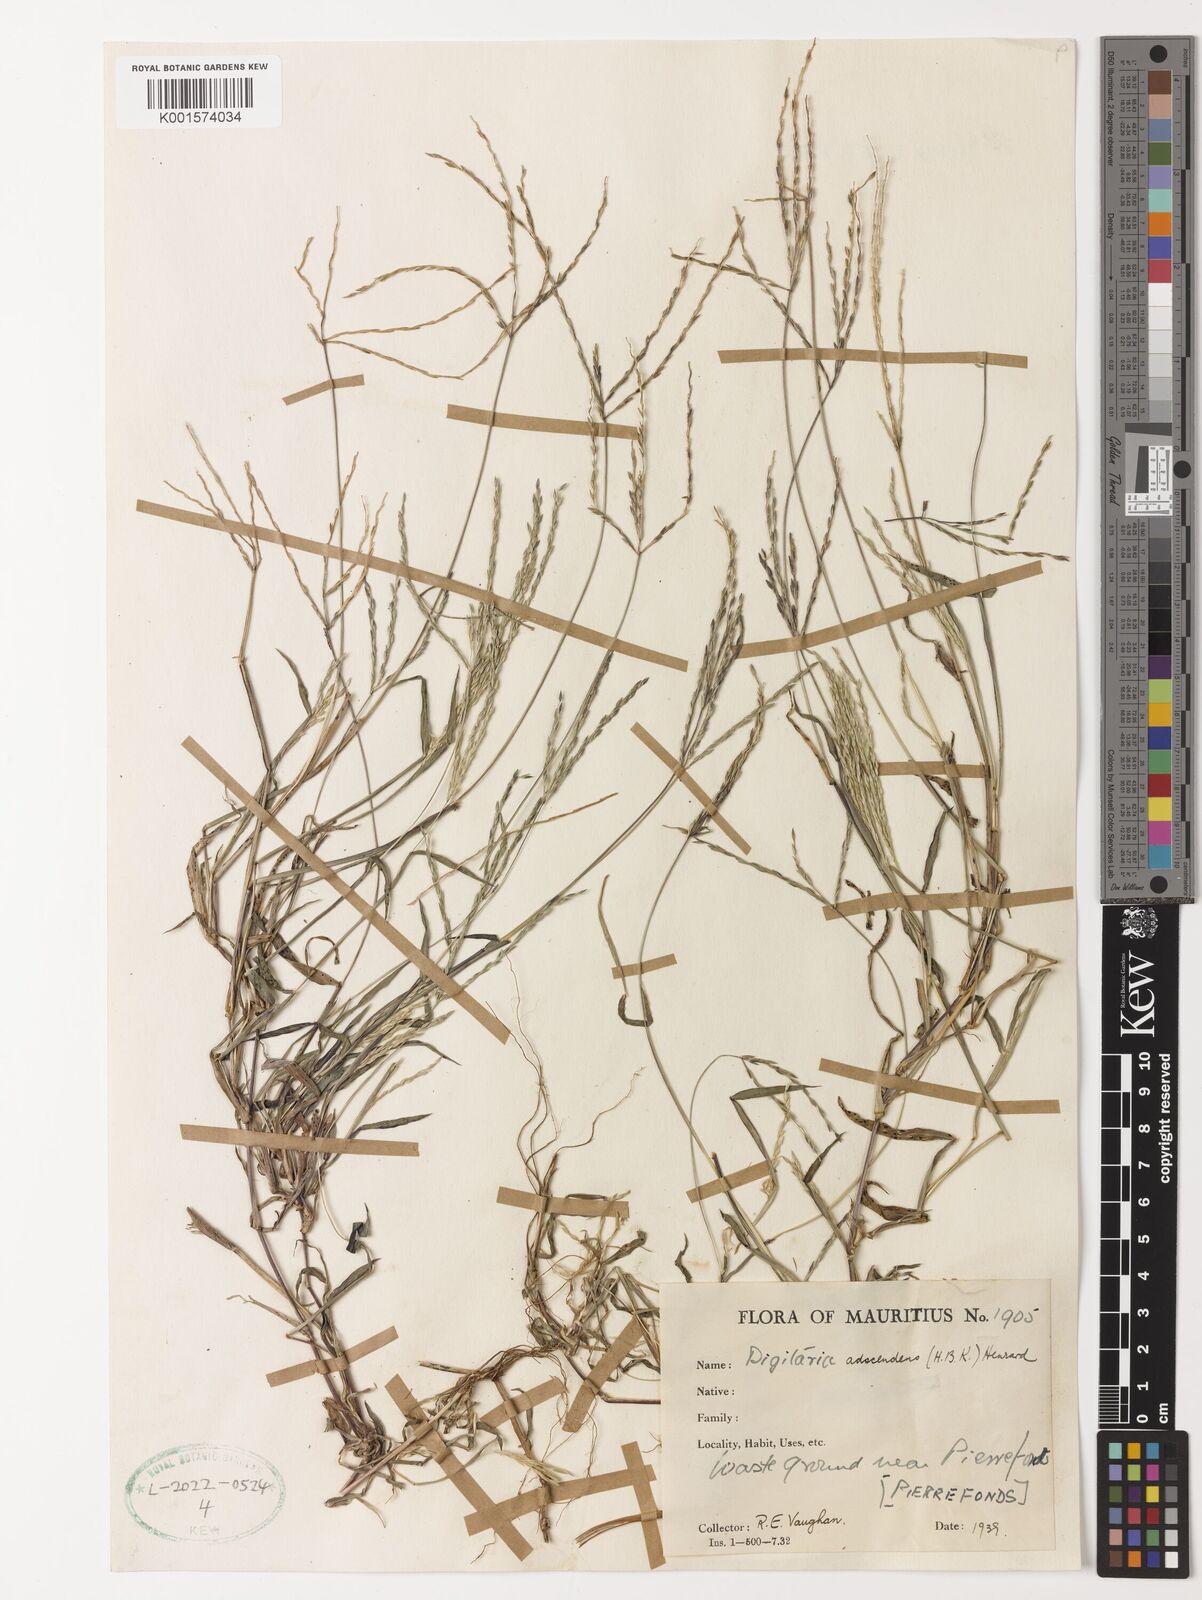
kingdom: Plantae
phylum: Tracheophyta
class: Liliopsida
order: Poales
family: Poaceae
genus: Digitaria
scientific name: Digitaria ciliaris
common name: Tropical finger-grass
